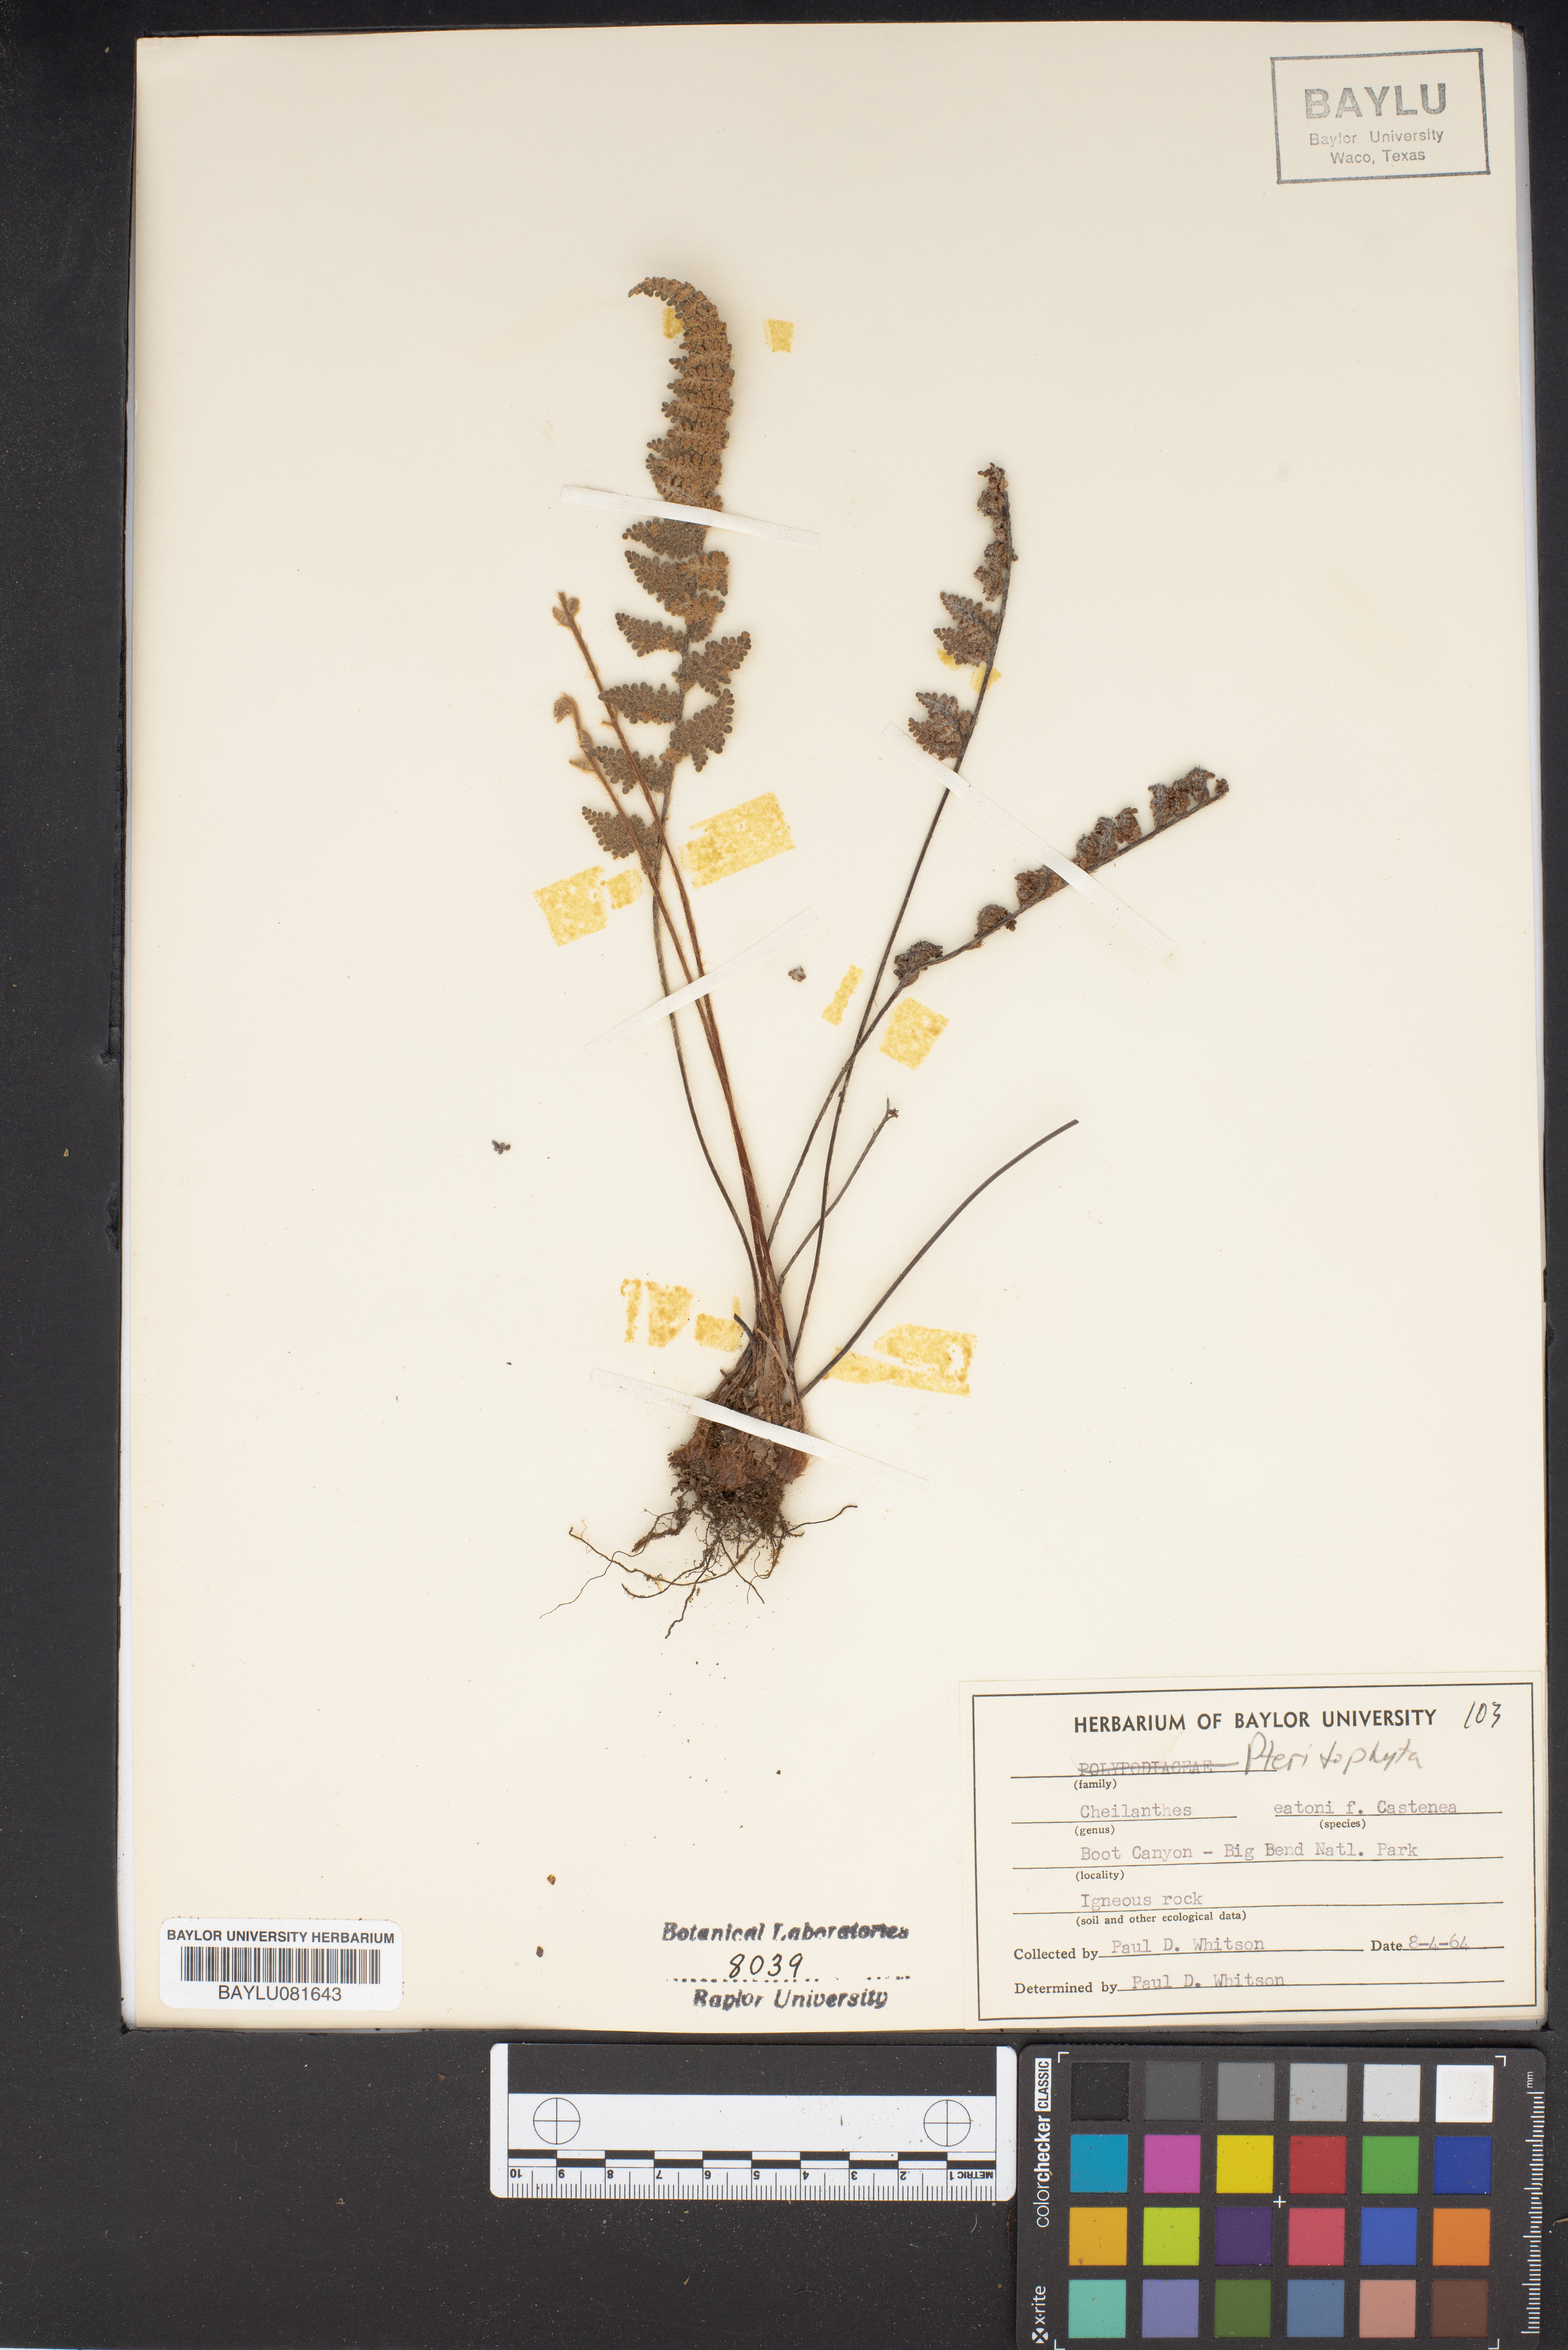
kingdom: Plantae
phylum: Tracheophyta
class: Polypodiopsida
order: Polypodiales
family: Pteridaceae
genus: Myriopteris
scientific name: Myriopteris rufa
